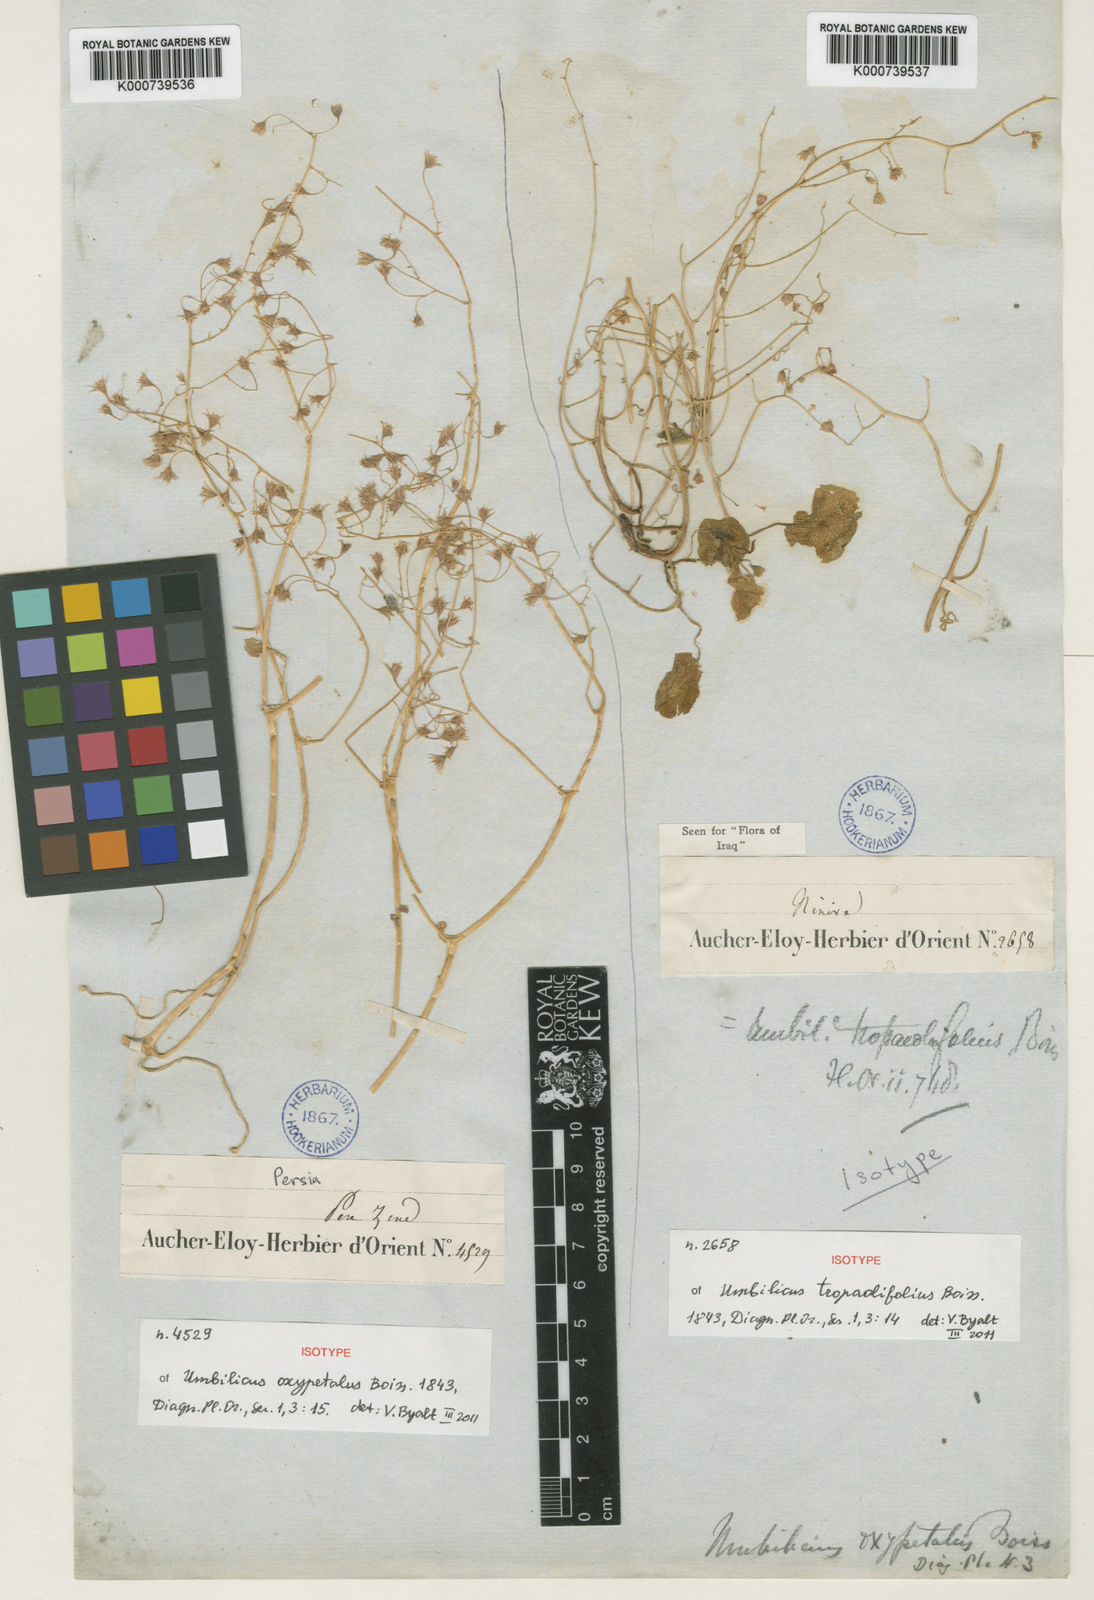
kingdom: Plantae
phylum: Tracheophyta
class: Magnoliopsida
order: Saxifragales
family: Crassulaceae
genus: Umbilicus
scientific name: Umbilicus tropaeolifolius
